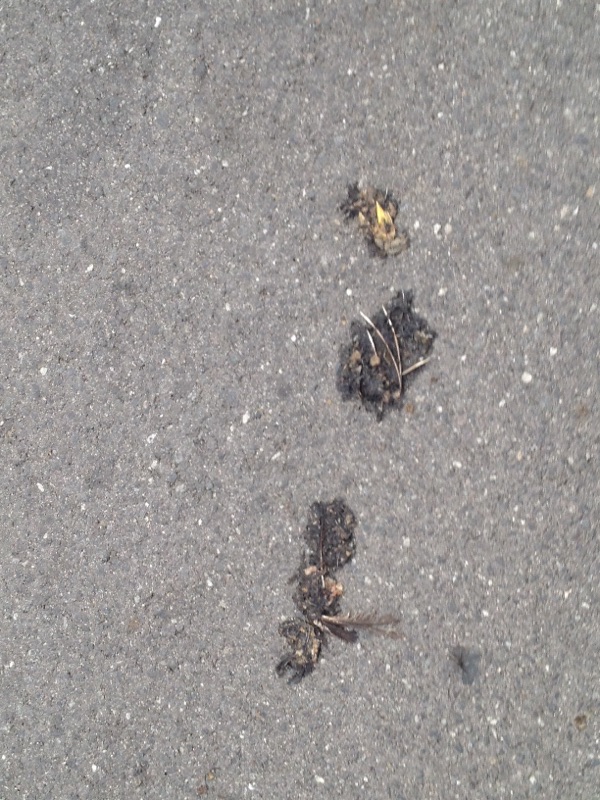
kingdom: Animalia
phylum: Chordata
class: Aves
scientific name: Aves
